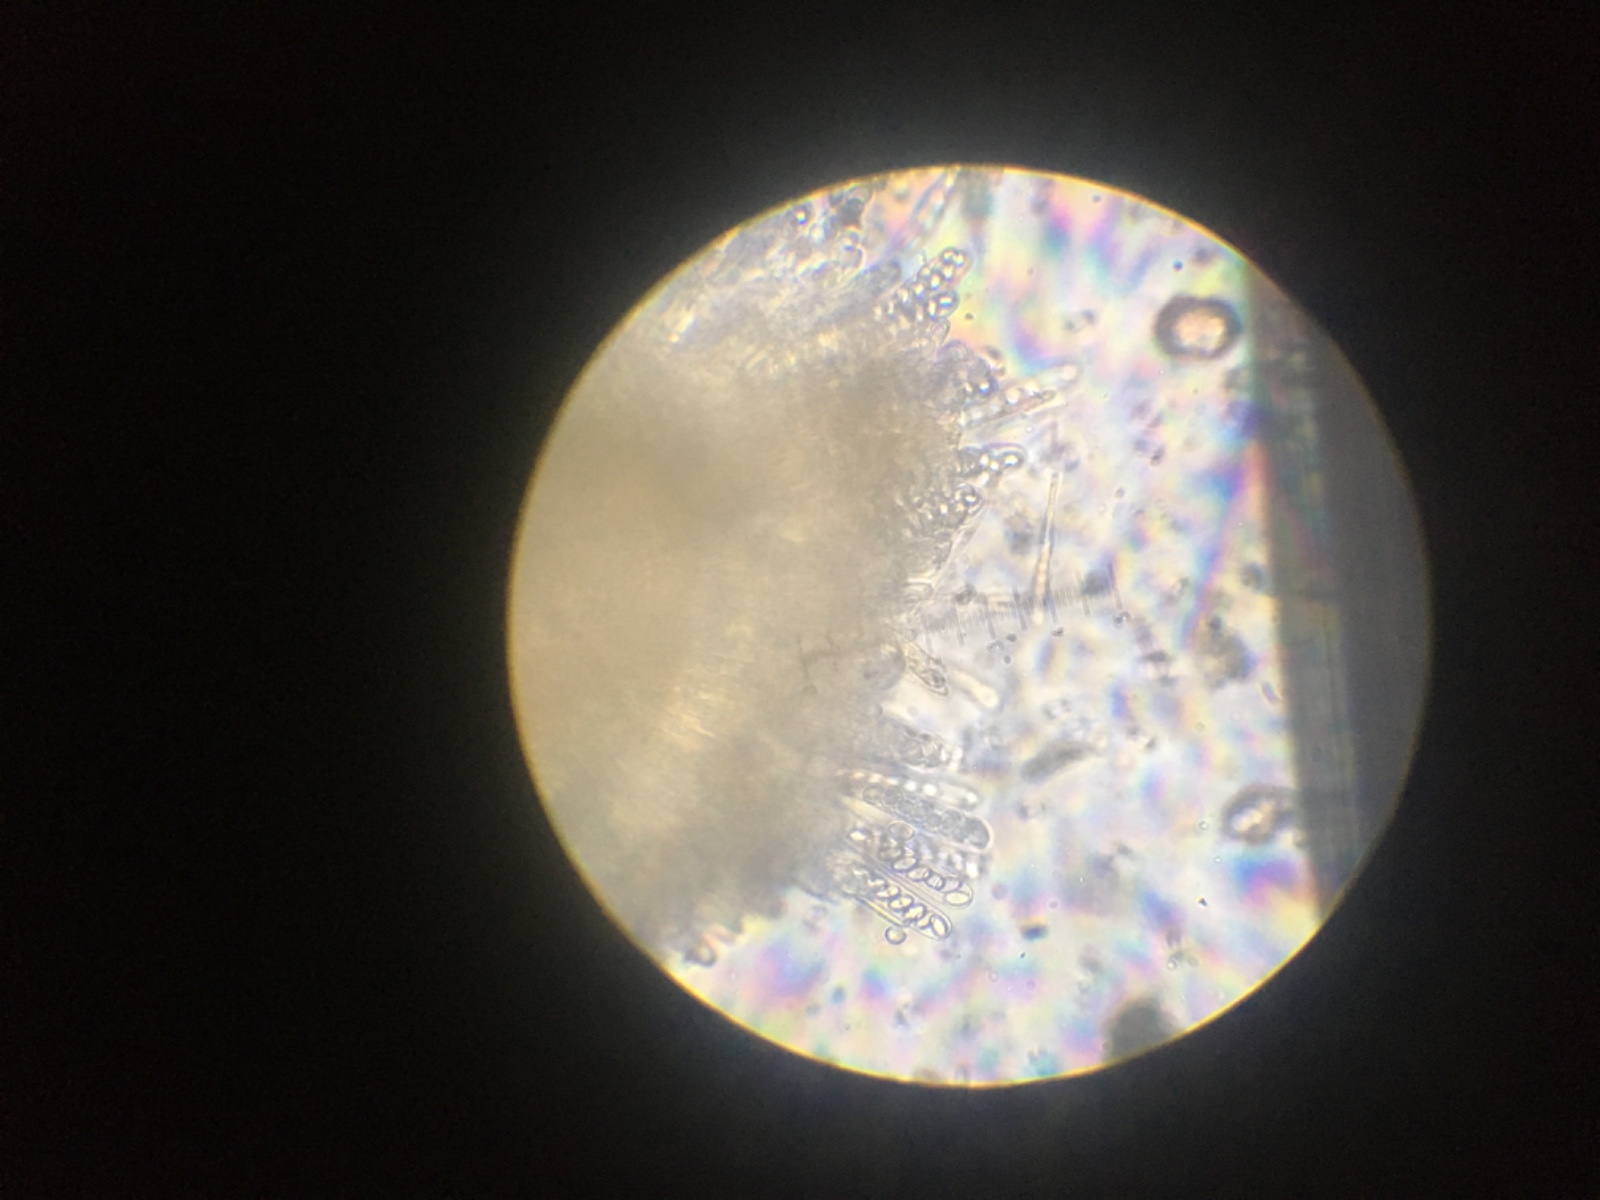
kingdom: Fungi
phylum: Ascomycota
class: Pezizomycetes
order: Pezizales
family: Pyronemataceae
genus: Pyronema
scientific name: Pyronema omphalodes
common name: glat askebæger
